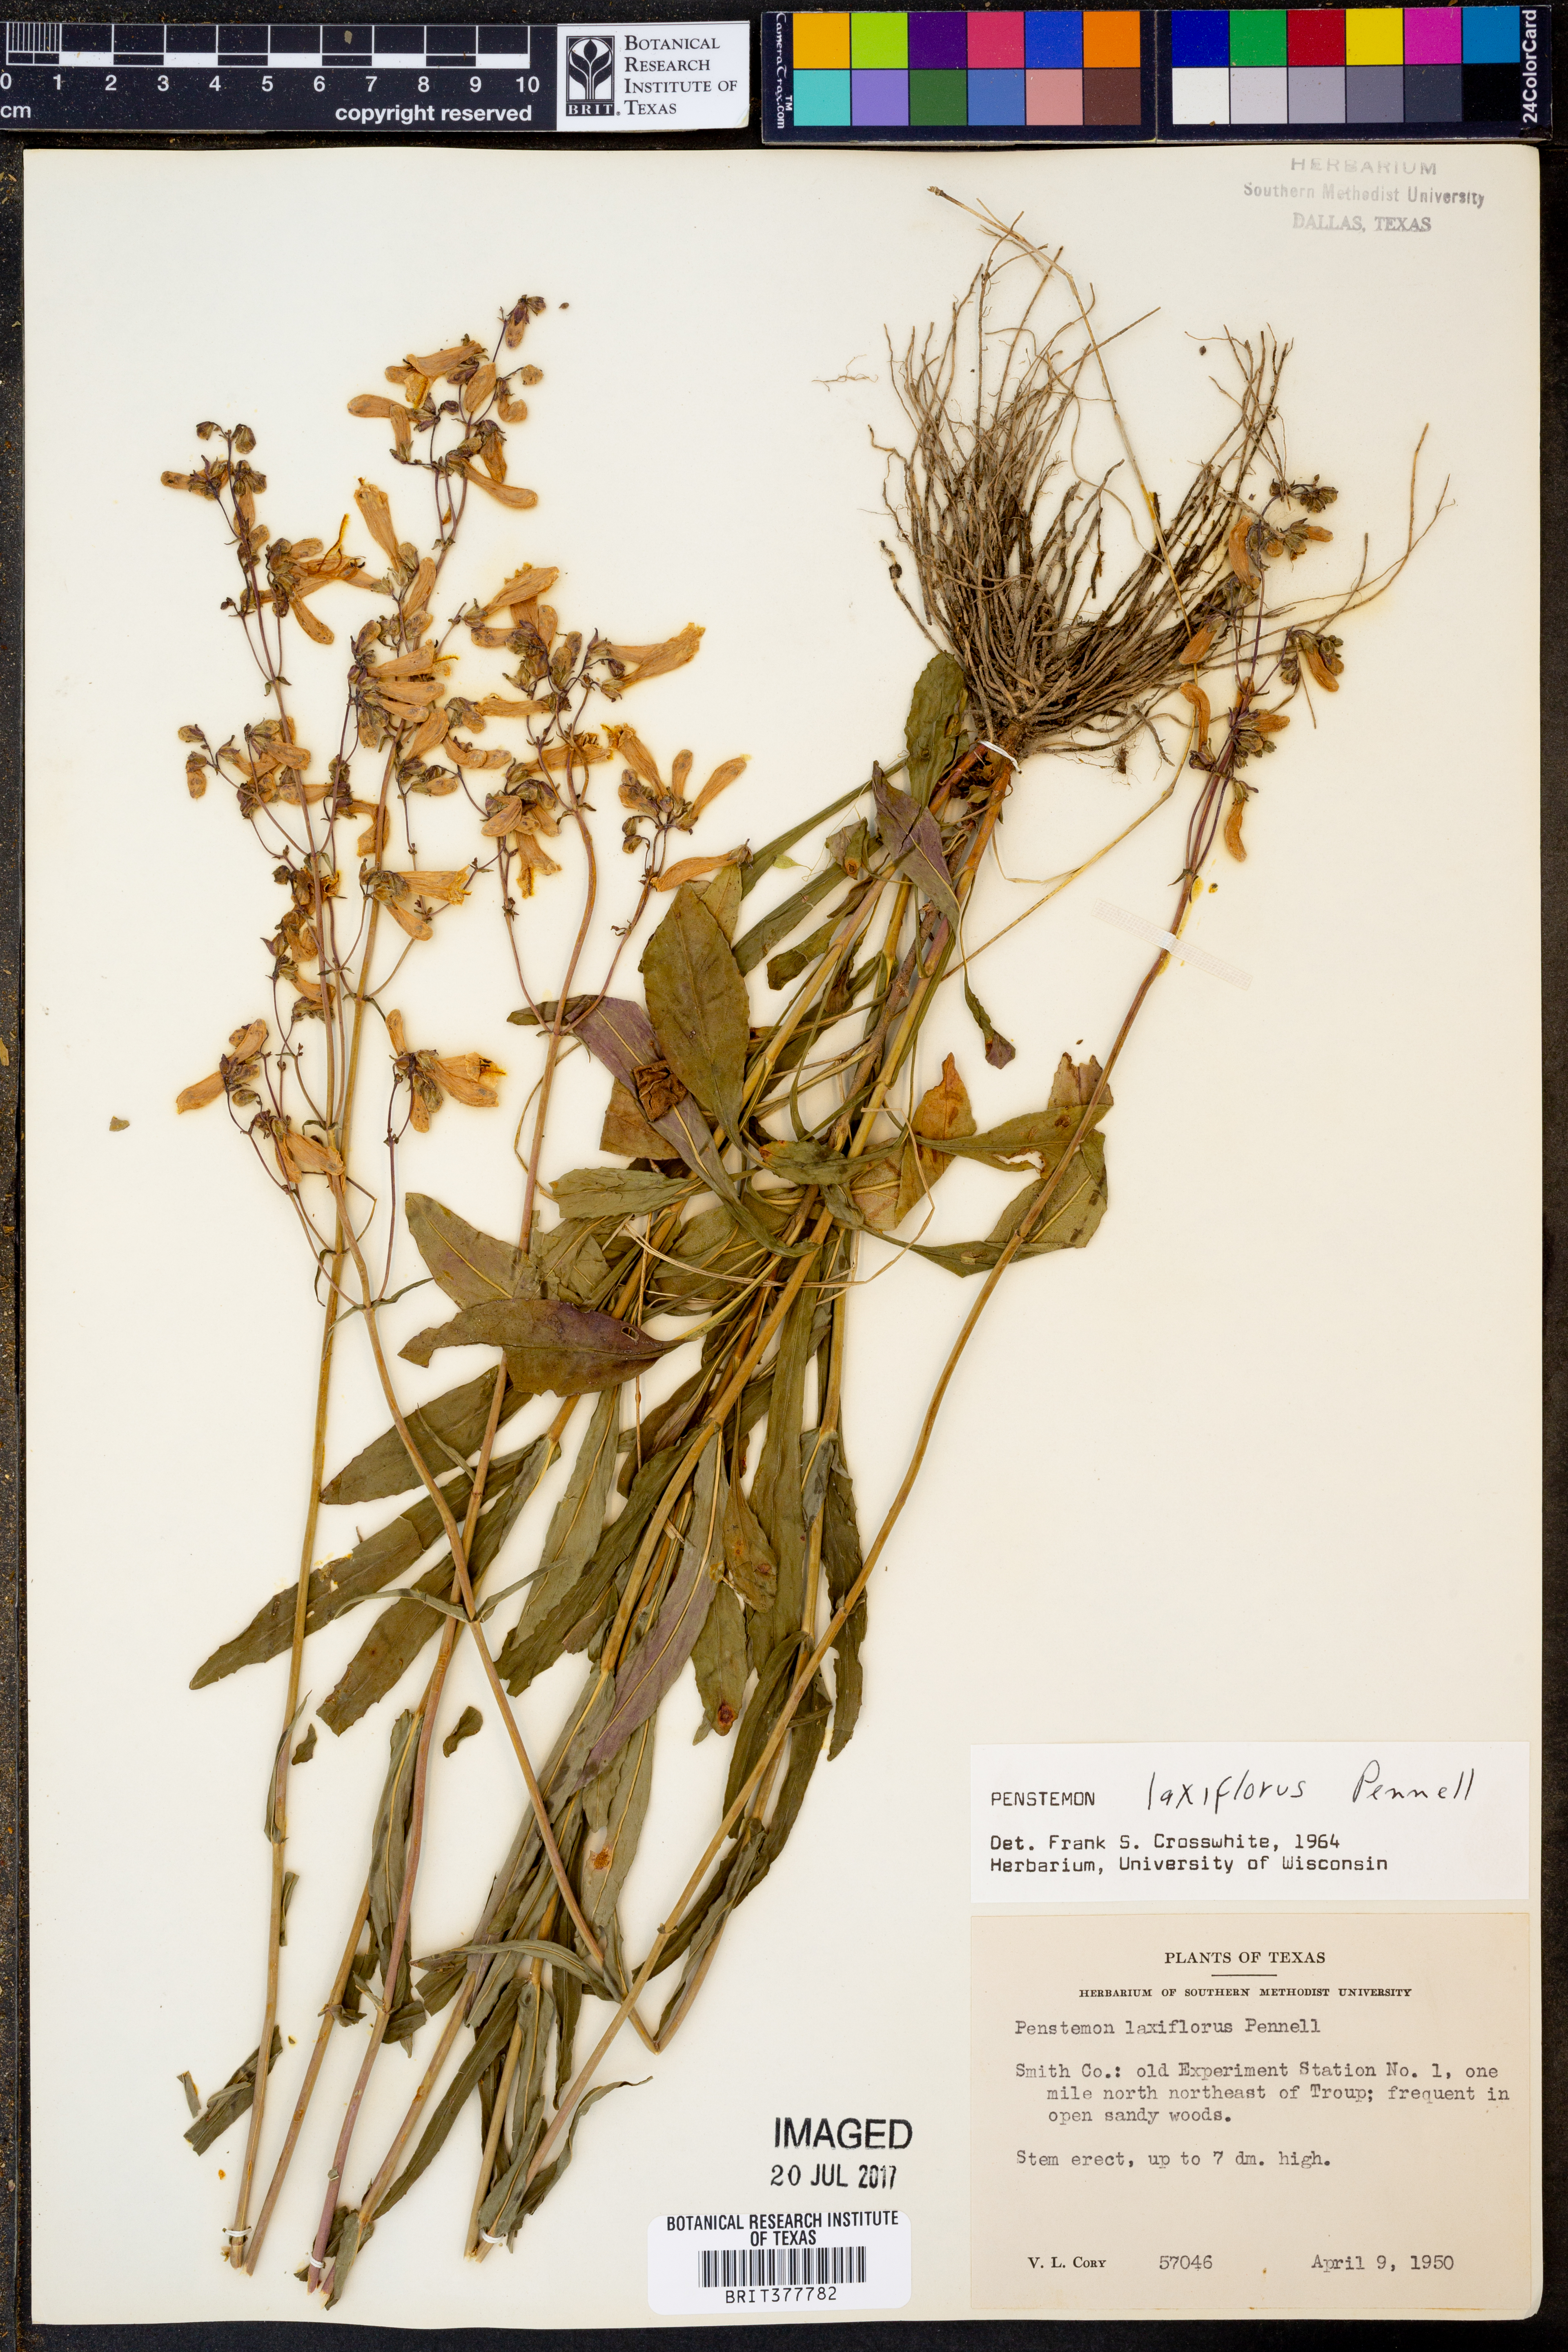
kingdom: Plantae
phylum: Tracheophyta
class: Magnoliopsida
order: Lamiales
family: Plantaginaceae
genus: Penstemon
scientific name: Penstemon laxiflorus
